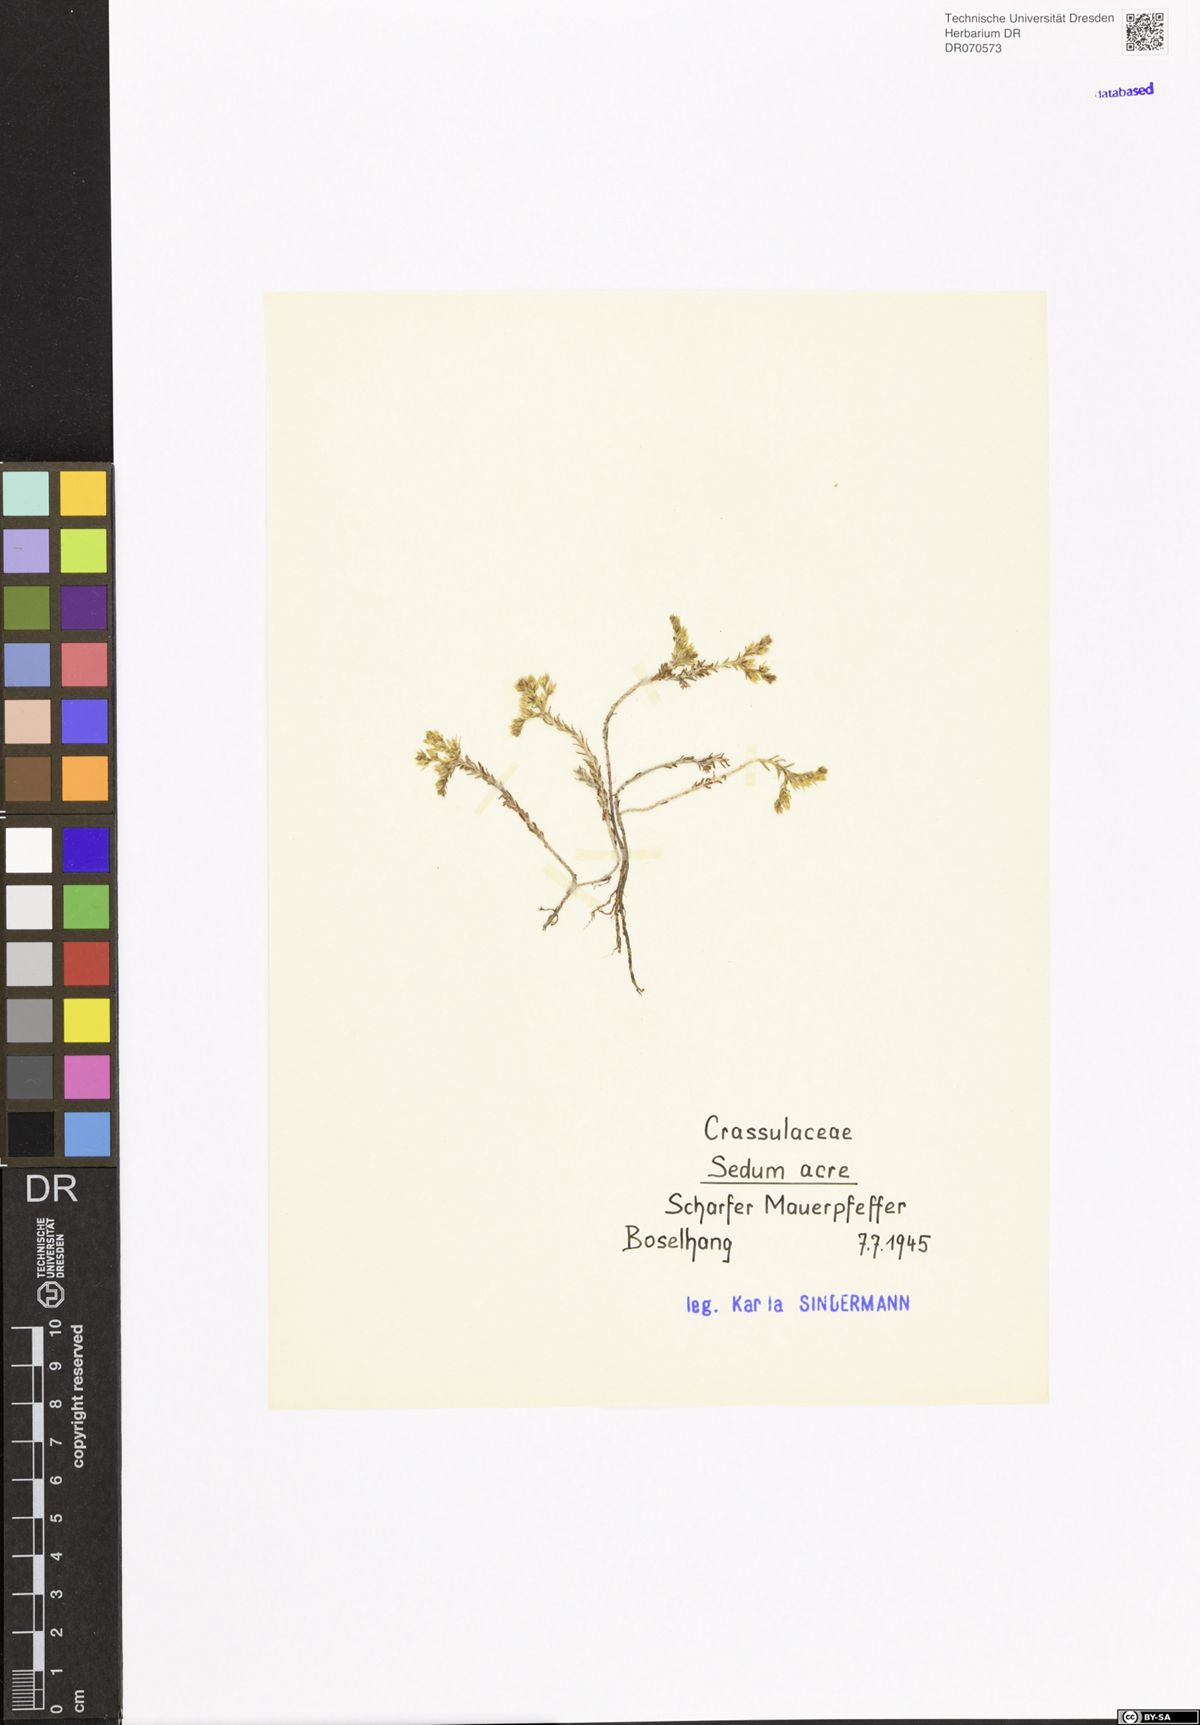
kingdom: Plantae
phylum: Tracheophyta
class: Magnoliopsida
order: Saxifragales
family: Crassulaceae
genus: Sedum
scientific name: Sedum acre
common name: Biting stonecrop
